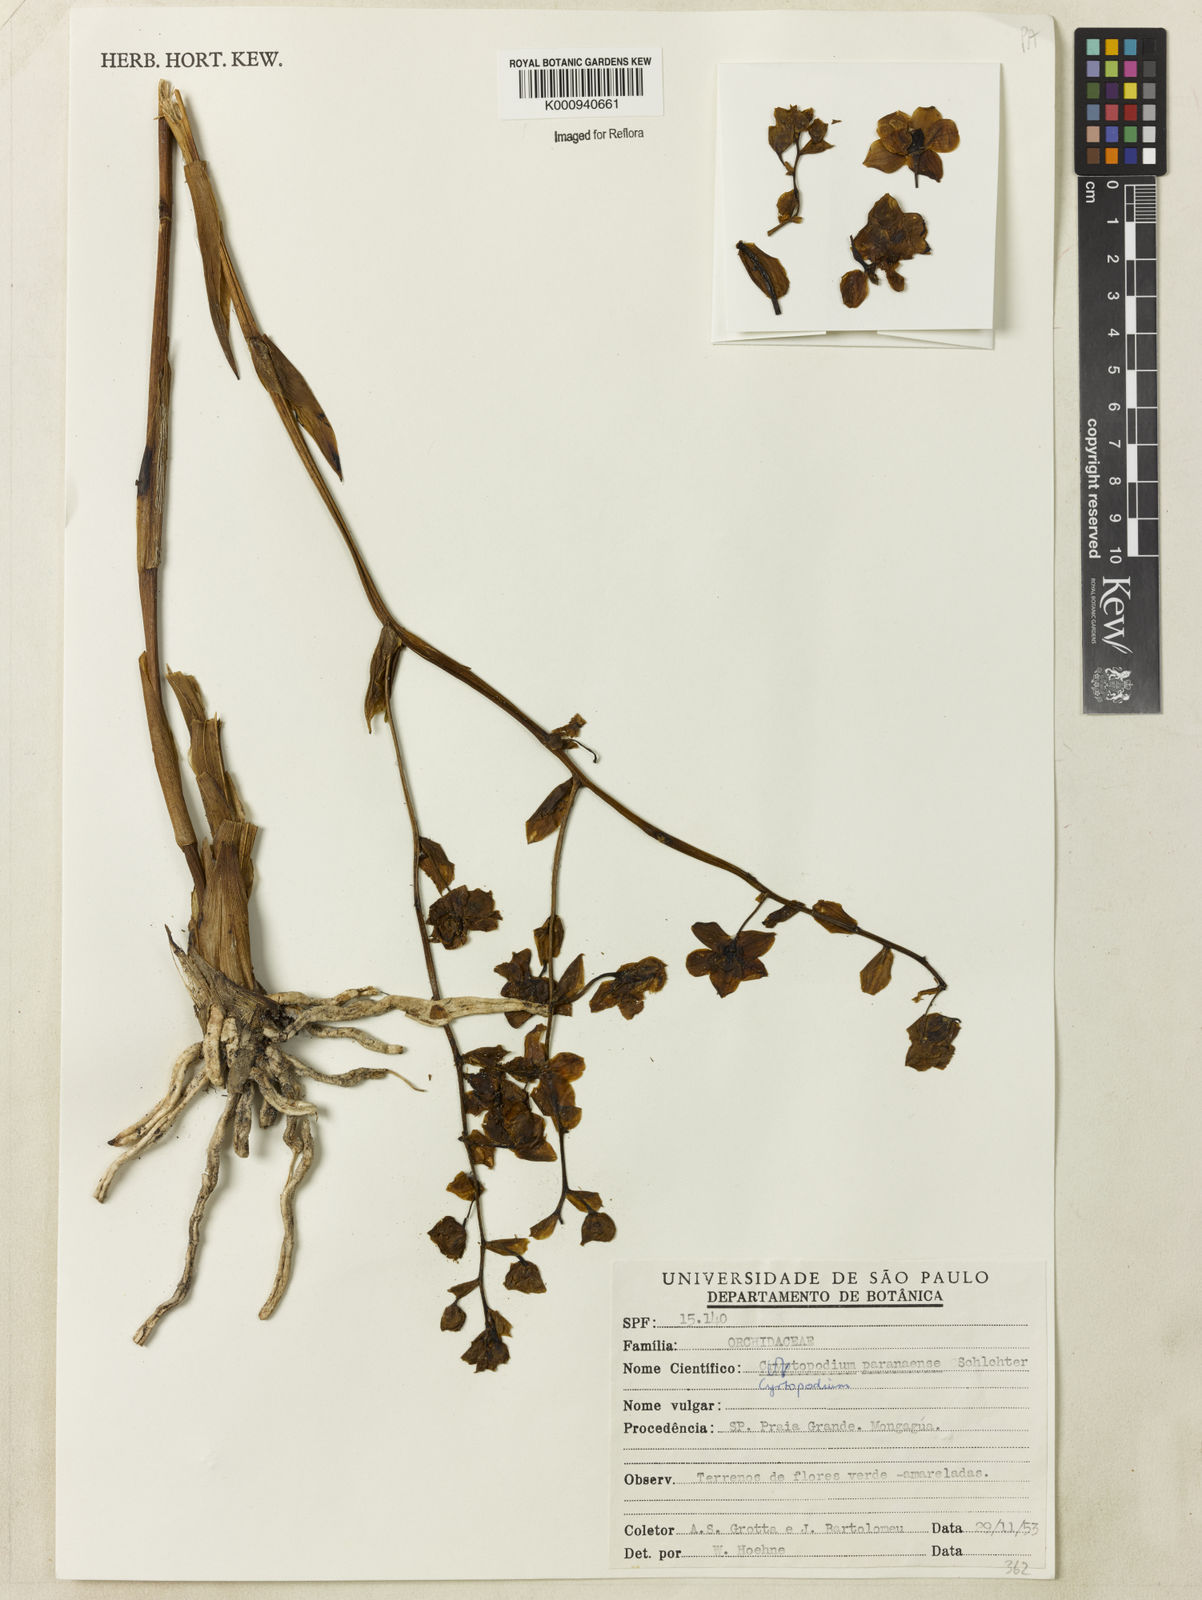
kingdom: Plantae
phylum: Tracheophyta
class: Liliopsida
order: Asparagales
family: Orchidaceae
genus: Cyrtopodium
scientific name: Cyrtopodium flavum
